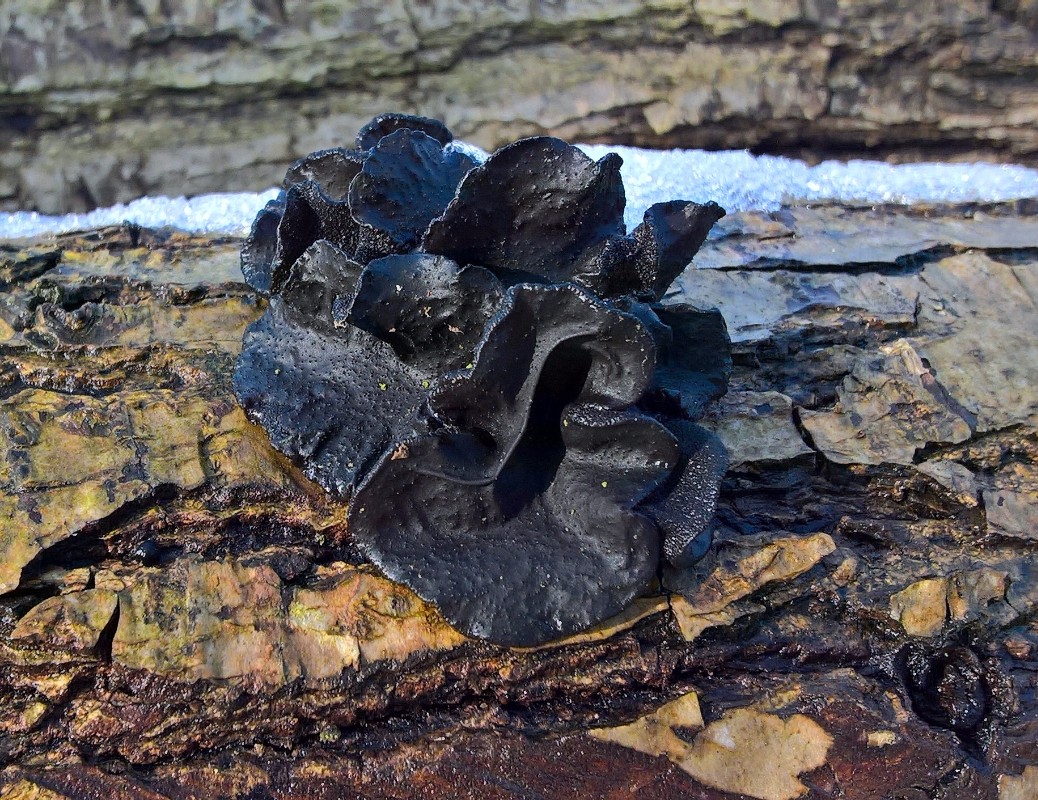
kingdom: Fungi
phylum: Basidiomycota
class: Agaricomycetes
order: Auriculariales
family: Auriculariaceae
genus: Exidia
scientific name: Exidia glandulosa
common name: ege-bævretop
